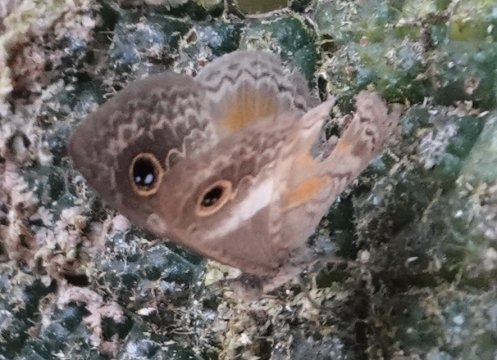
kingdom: Animalia
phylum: Arthropoda
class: Insecta
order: Lepidoptera
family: Riodinidae
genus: Perophthalma
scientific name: Perophthalma lasus
